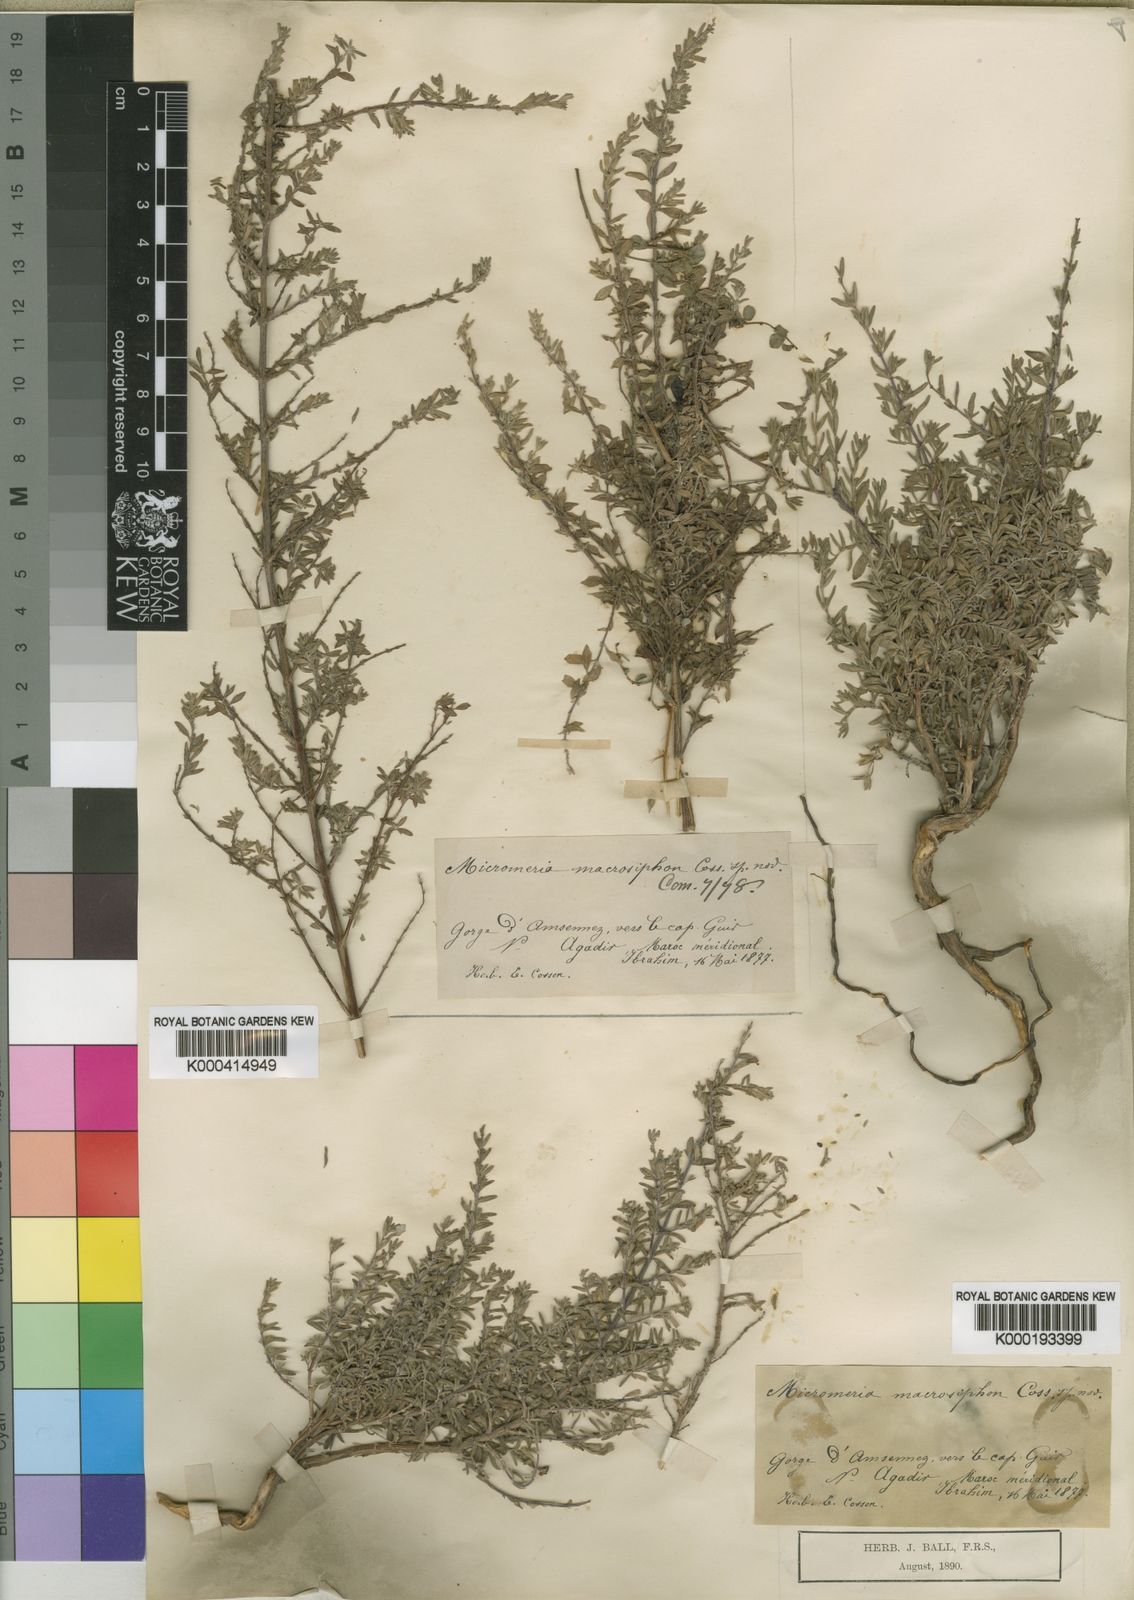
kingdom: Plantae
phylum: Tracheophyta
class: Magnoliopsida
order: Lamiales
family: Lamiaceae
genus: Micromeria
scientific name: Micromeria macrosiphon
